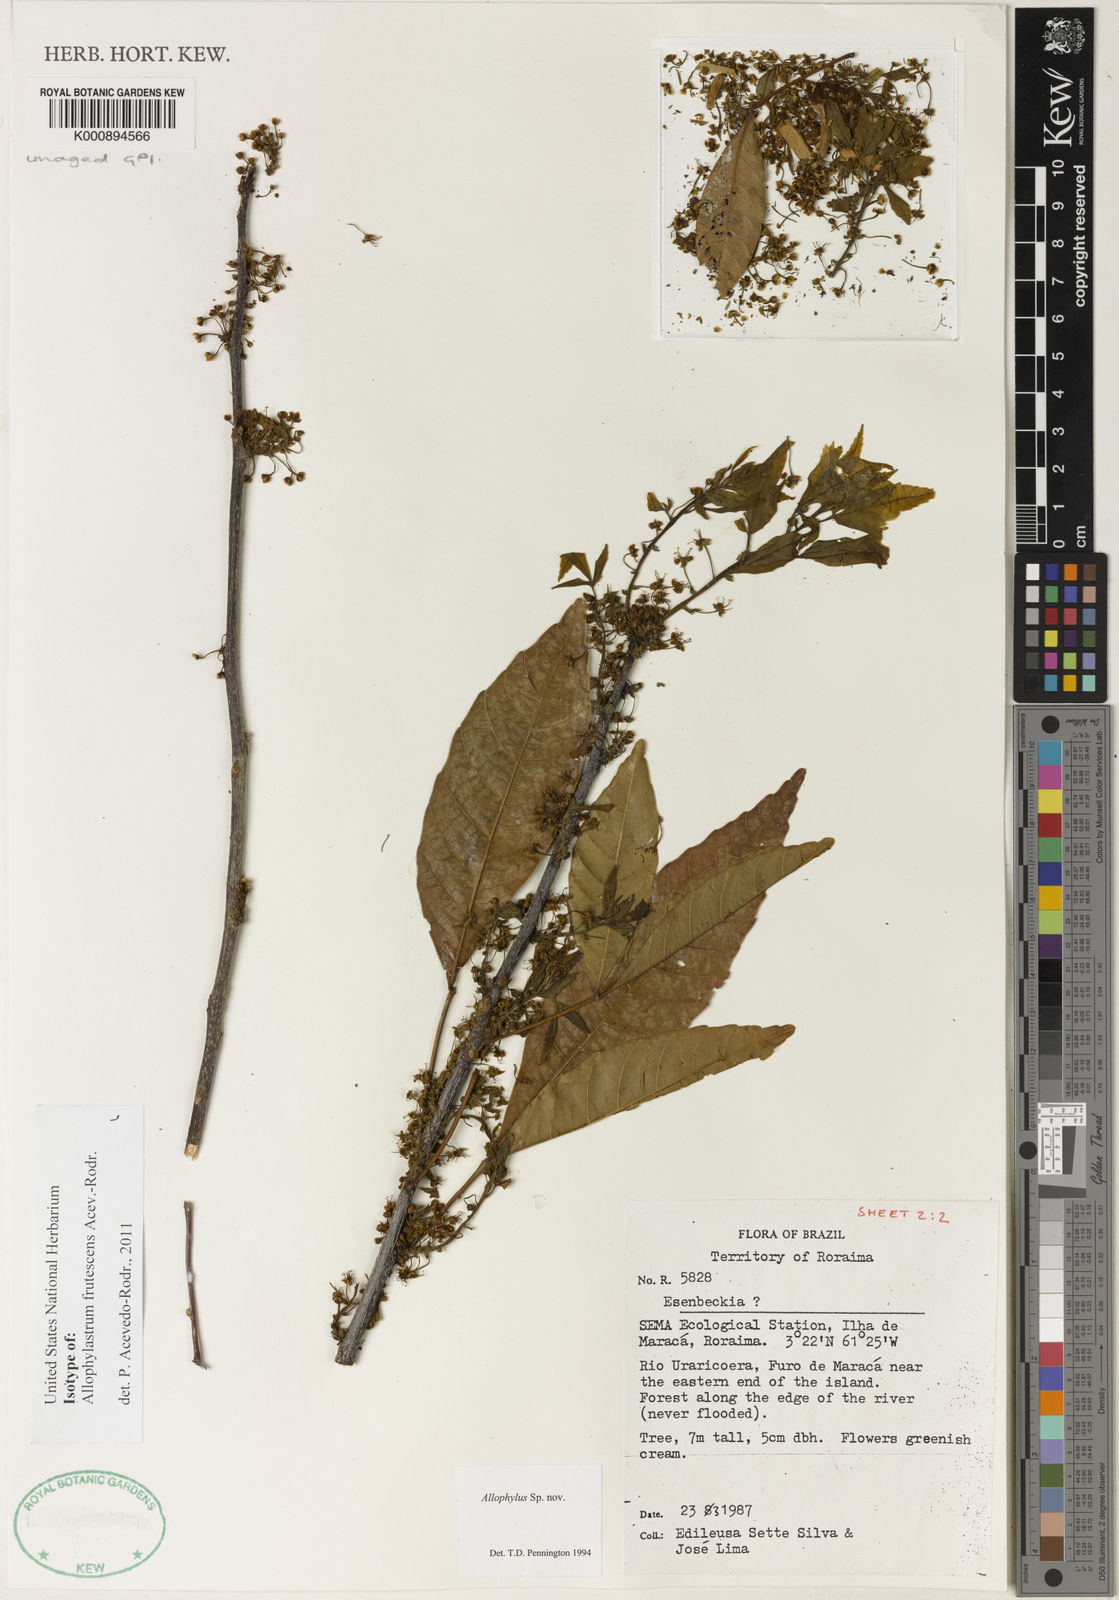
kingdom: Plantae
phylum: Tracheophyta
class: Magnoliopsida
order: Sapindales
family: Sapindaceae
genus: Allophylastrum
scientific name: Allophylastrum frutescens
